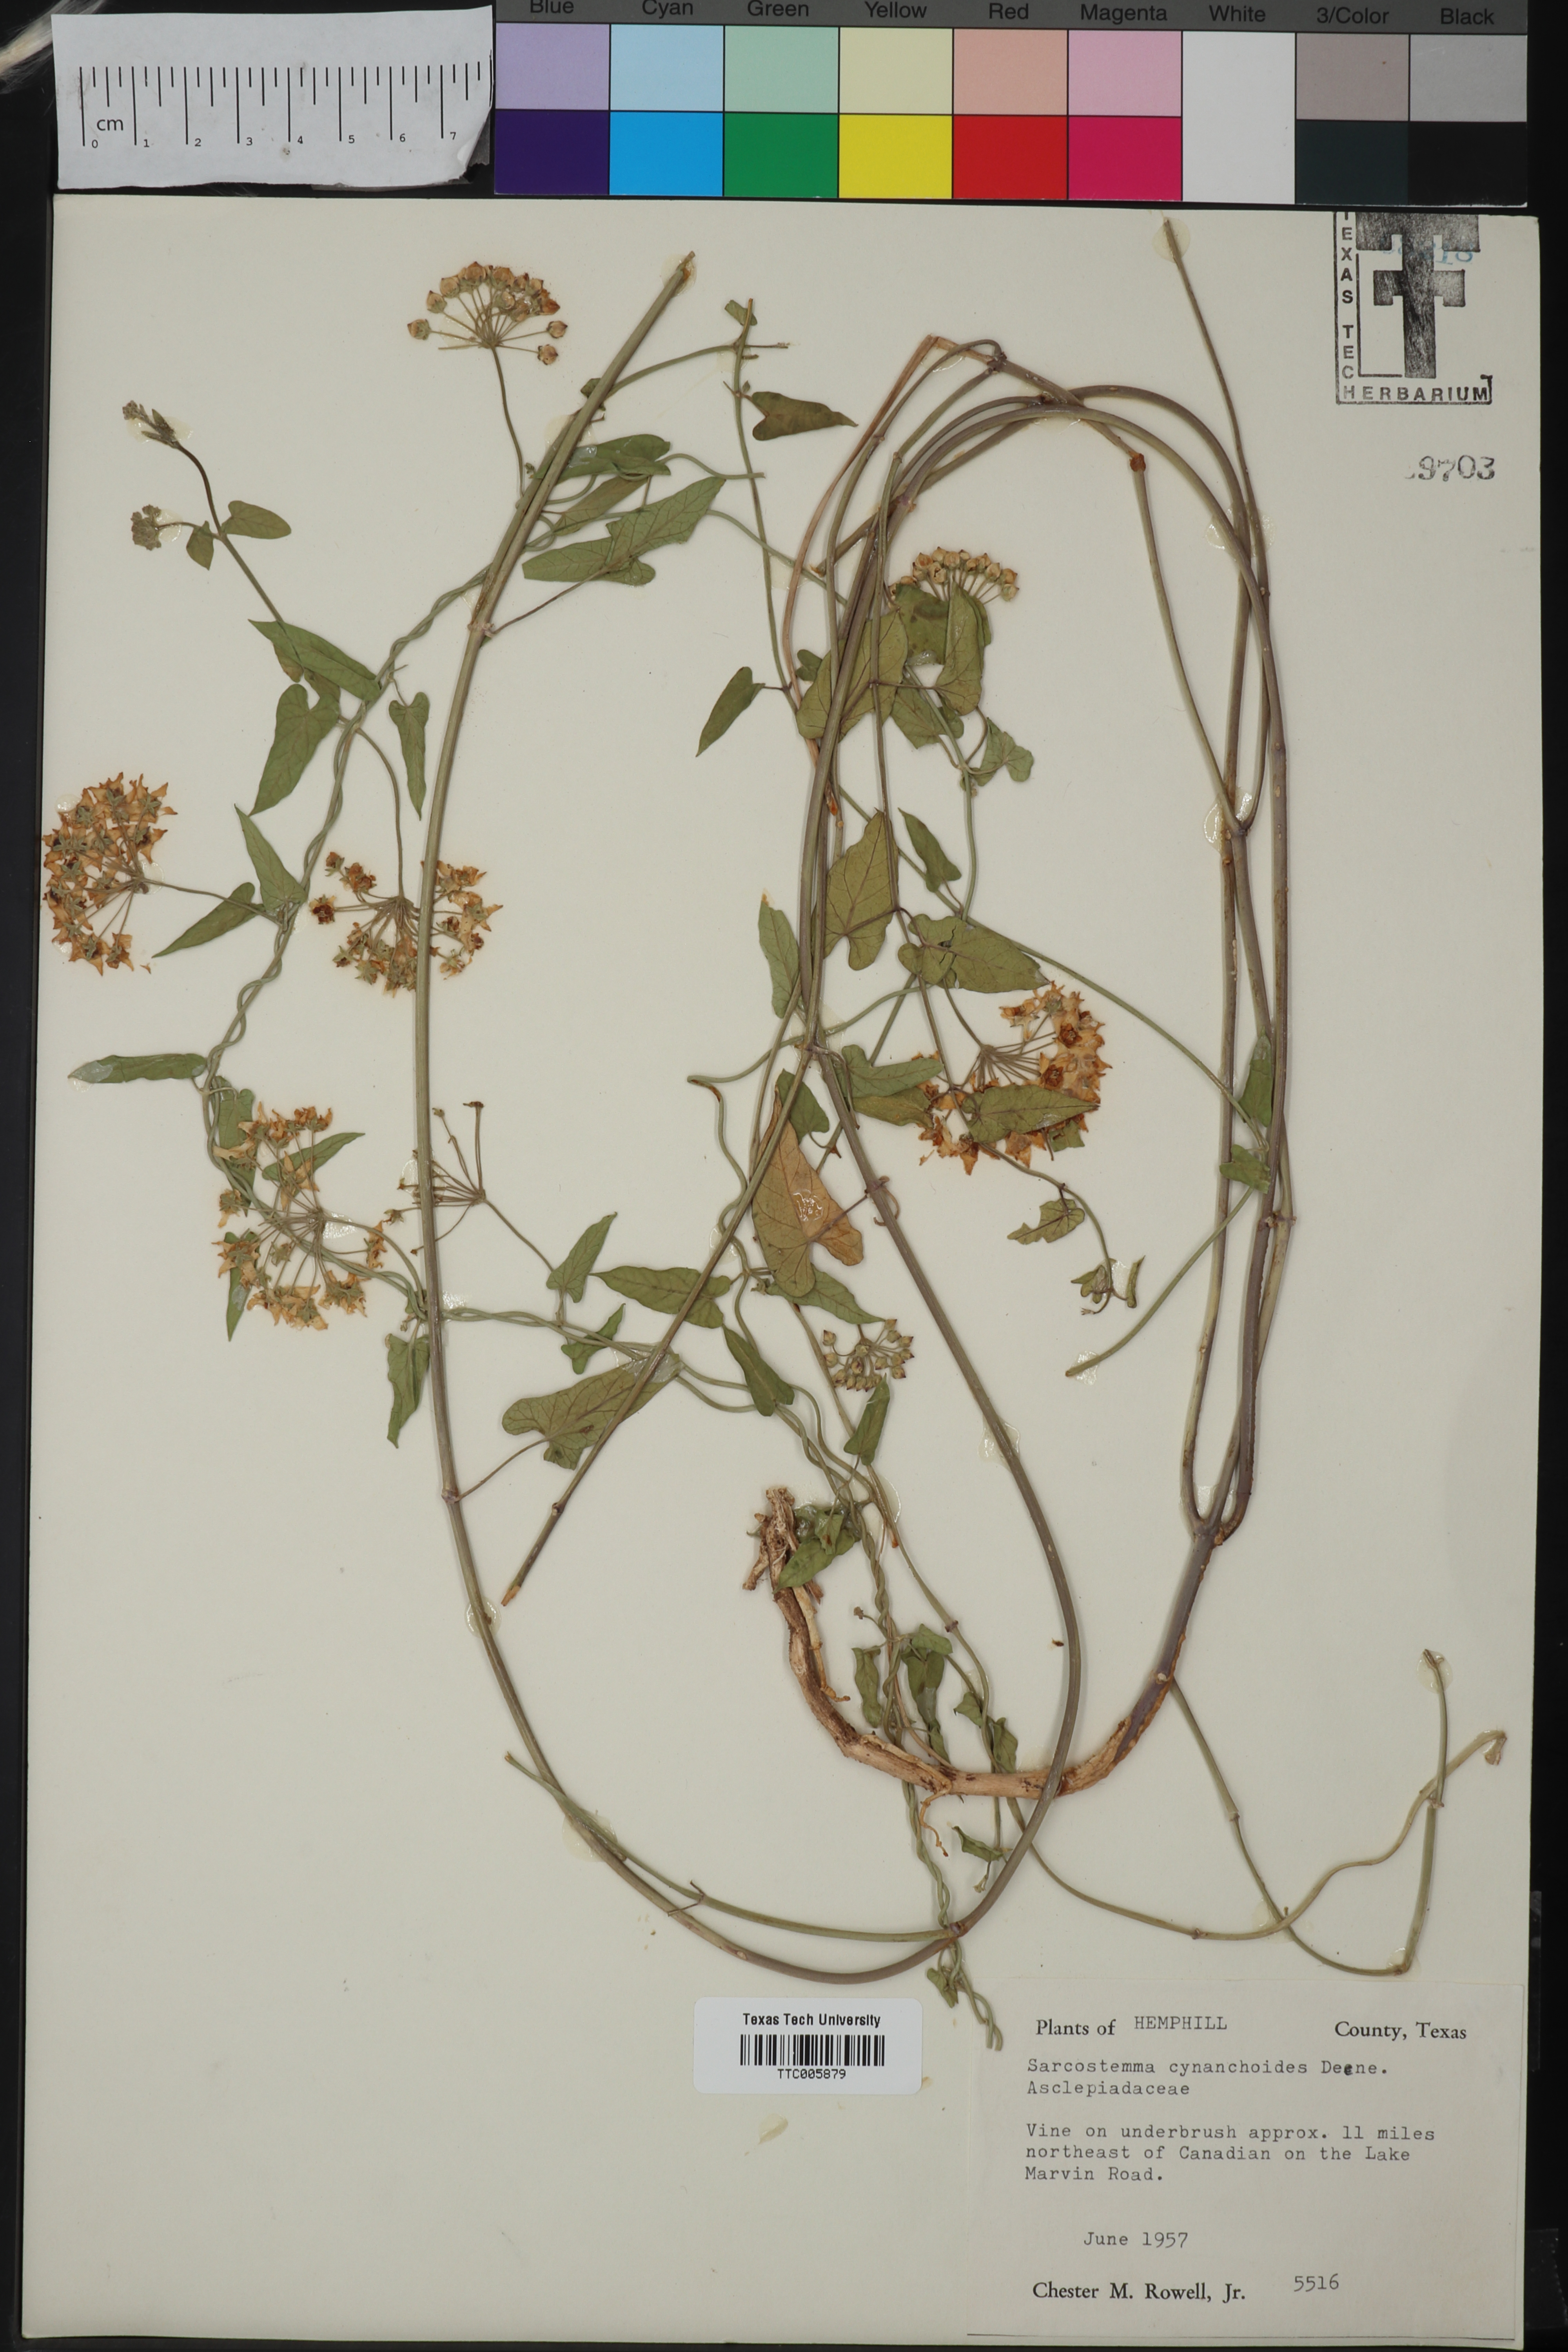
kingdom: Plantae
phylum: Tracheophyta
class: Magnoliopsida
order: Gentianales
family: Apocynaceae
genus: Funastrum
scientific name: Funastrum cynanchoides
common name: Climbing-milkweed
